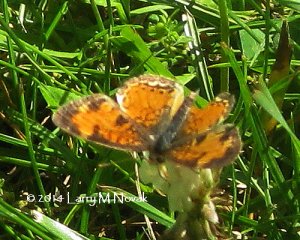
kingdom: Animalia
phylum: Arthropoda
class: Insecta
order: Lepidoptera
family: Nymphalidae
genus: Phyciodes
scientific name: Phyciodes tharos
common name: Northern Crescent
